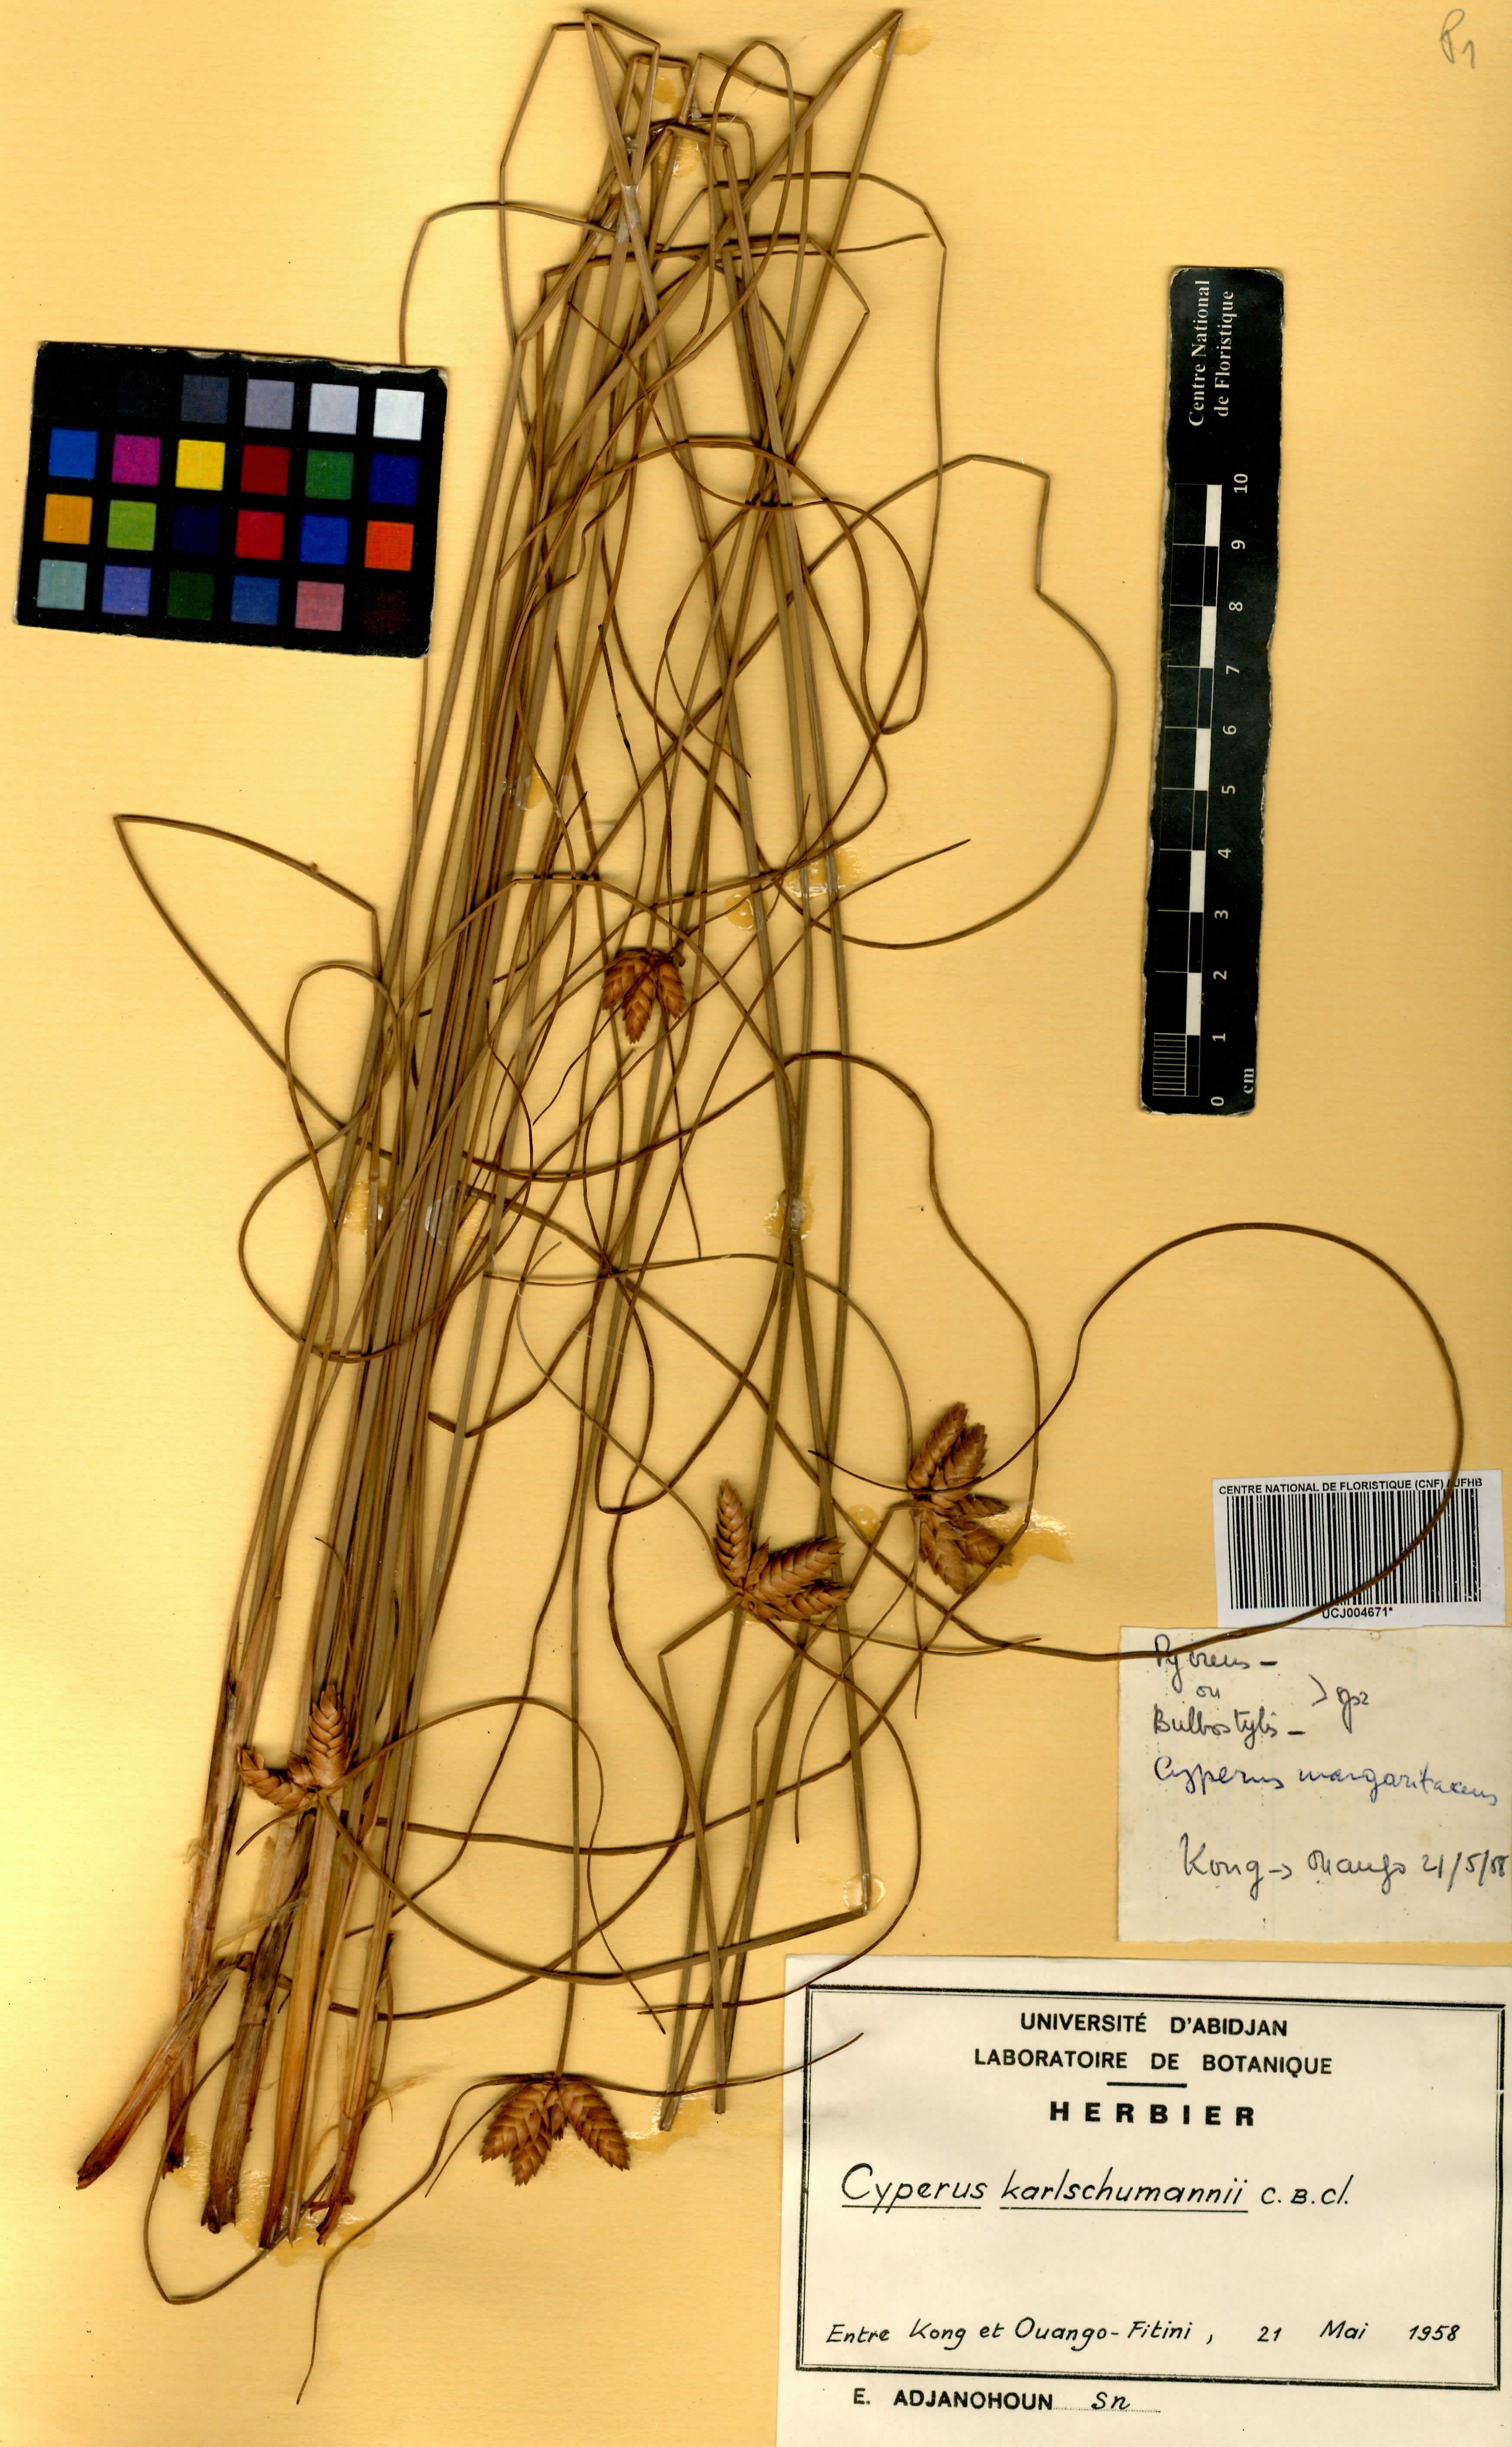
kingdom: Plantae
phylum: Tracheophyta
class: Liliopsida
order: Poales
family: Cyperaceae
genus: Cyperus
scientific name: Cyperus karlschumannii
